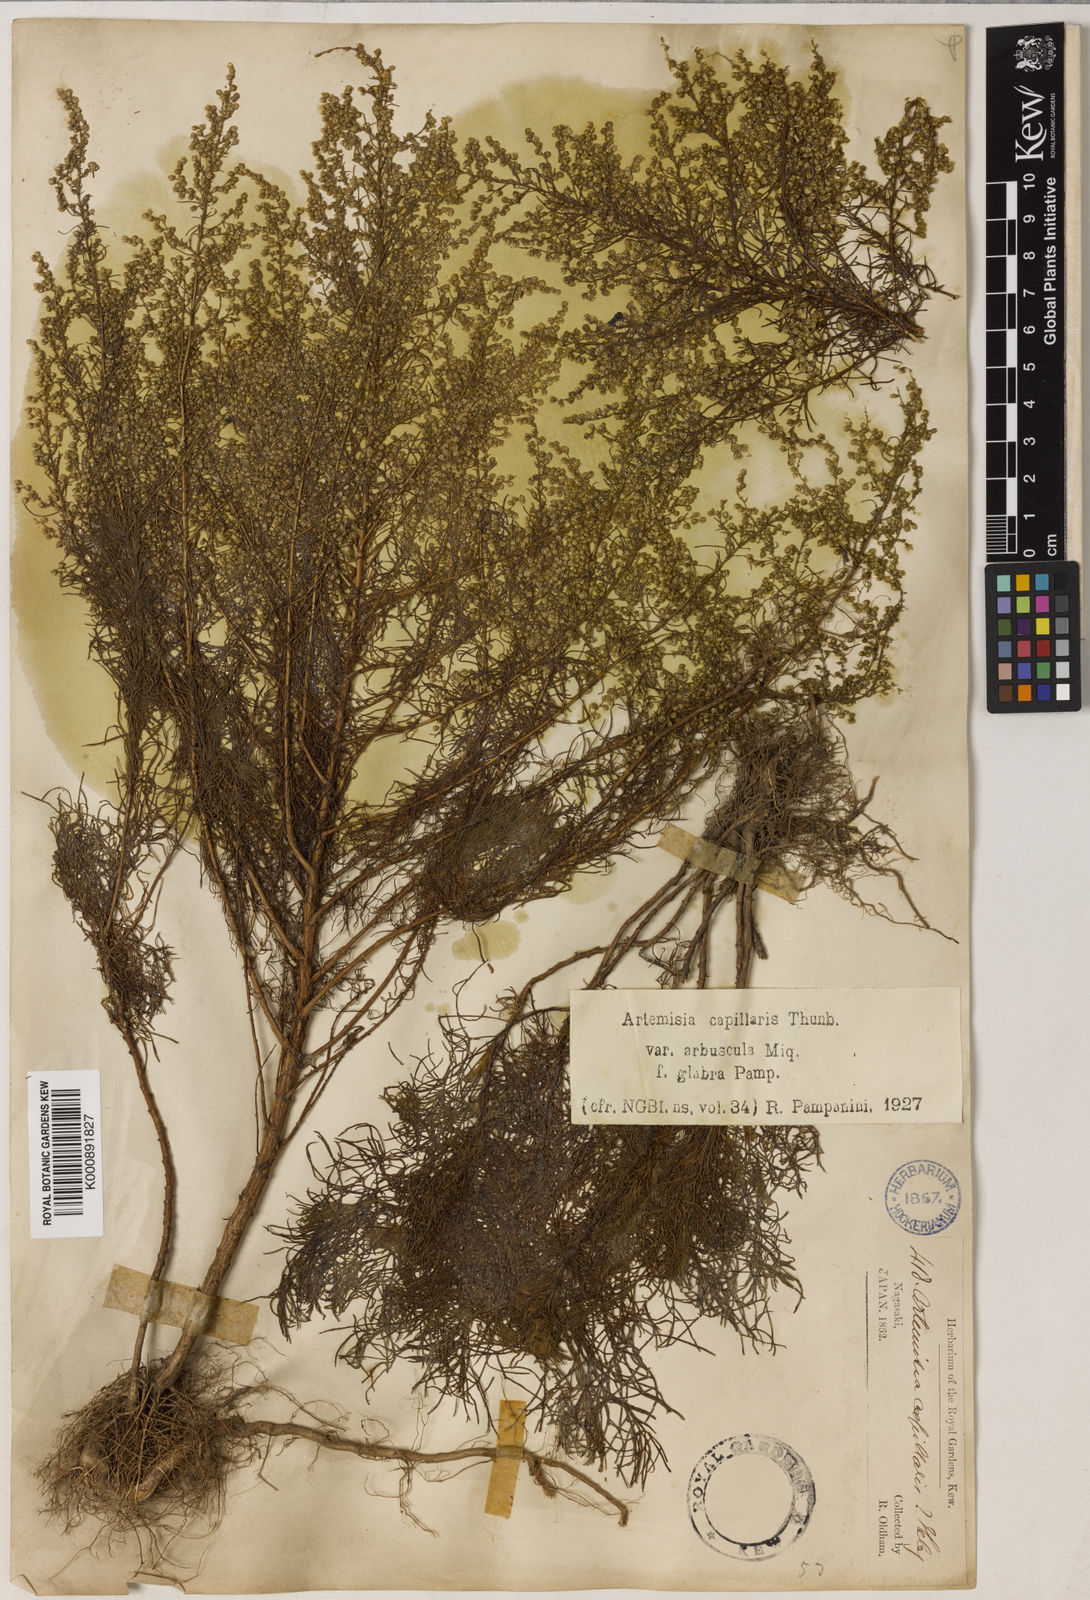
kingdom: Plantae
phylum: Tracheophyta
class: Magnoliopsida
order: Asterales
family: Asteraceae
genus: Artemisia
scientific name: Artemisia capillaris
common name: Yin-chen wormwood
